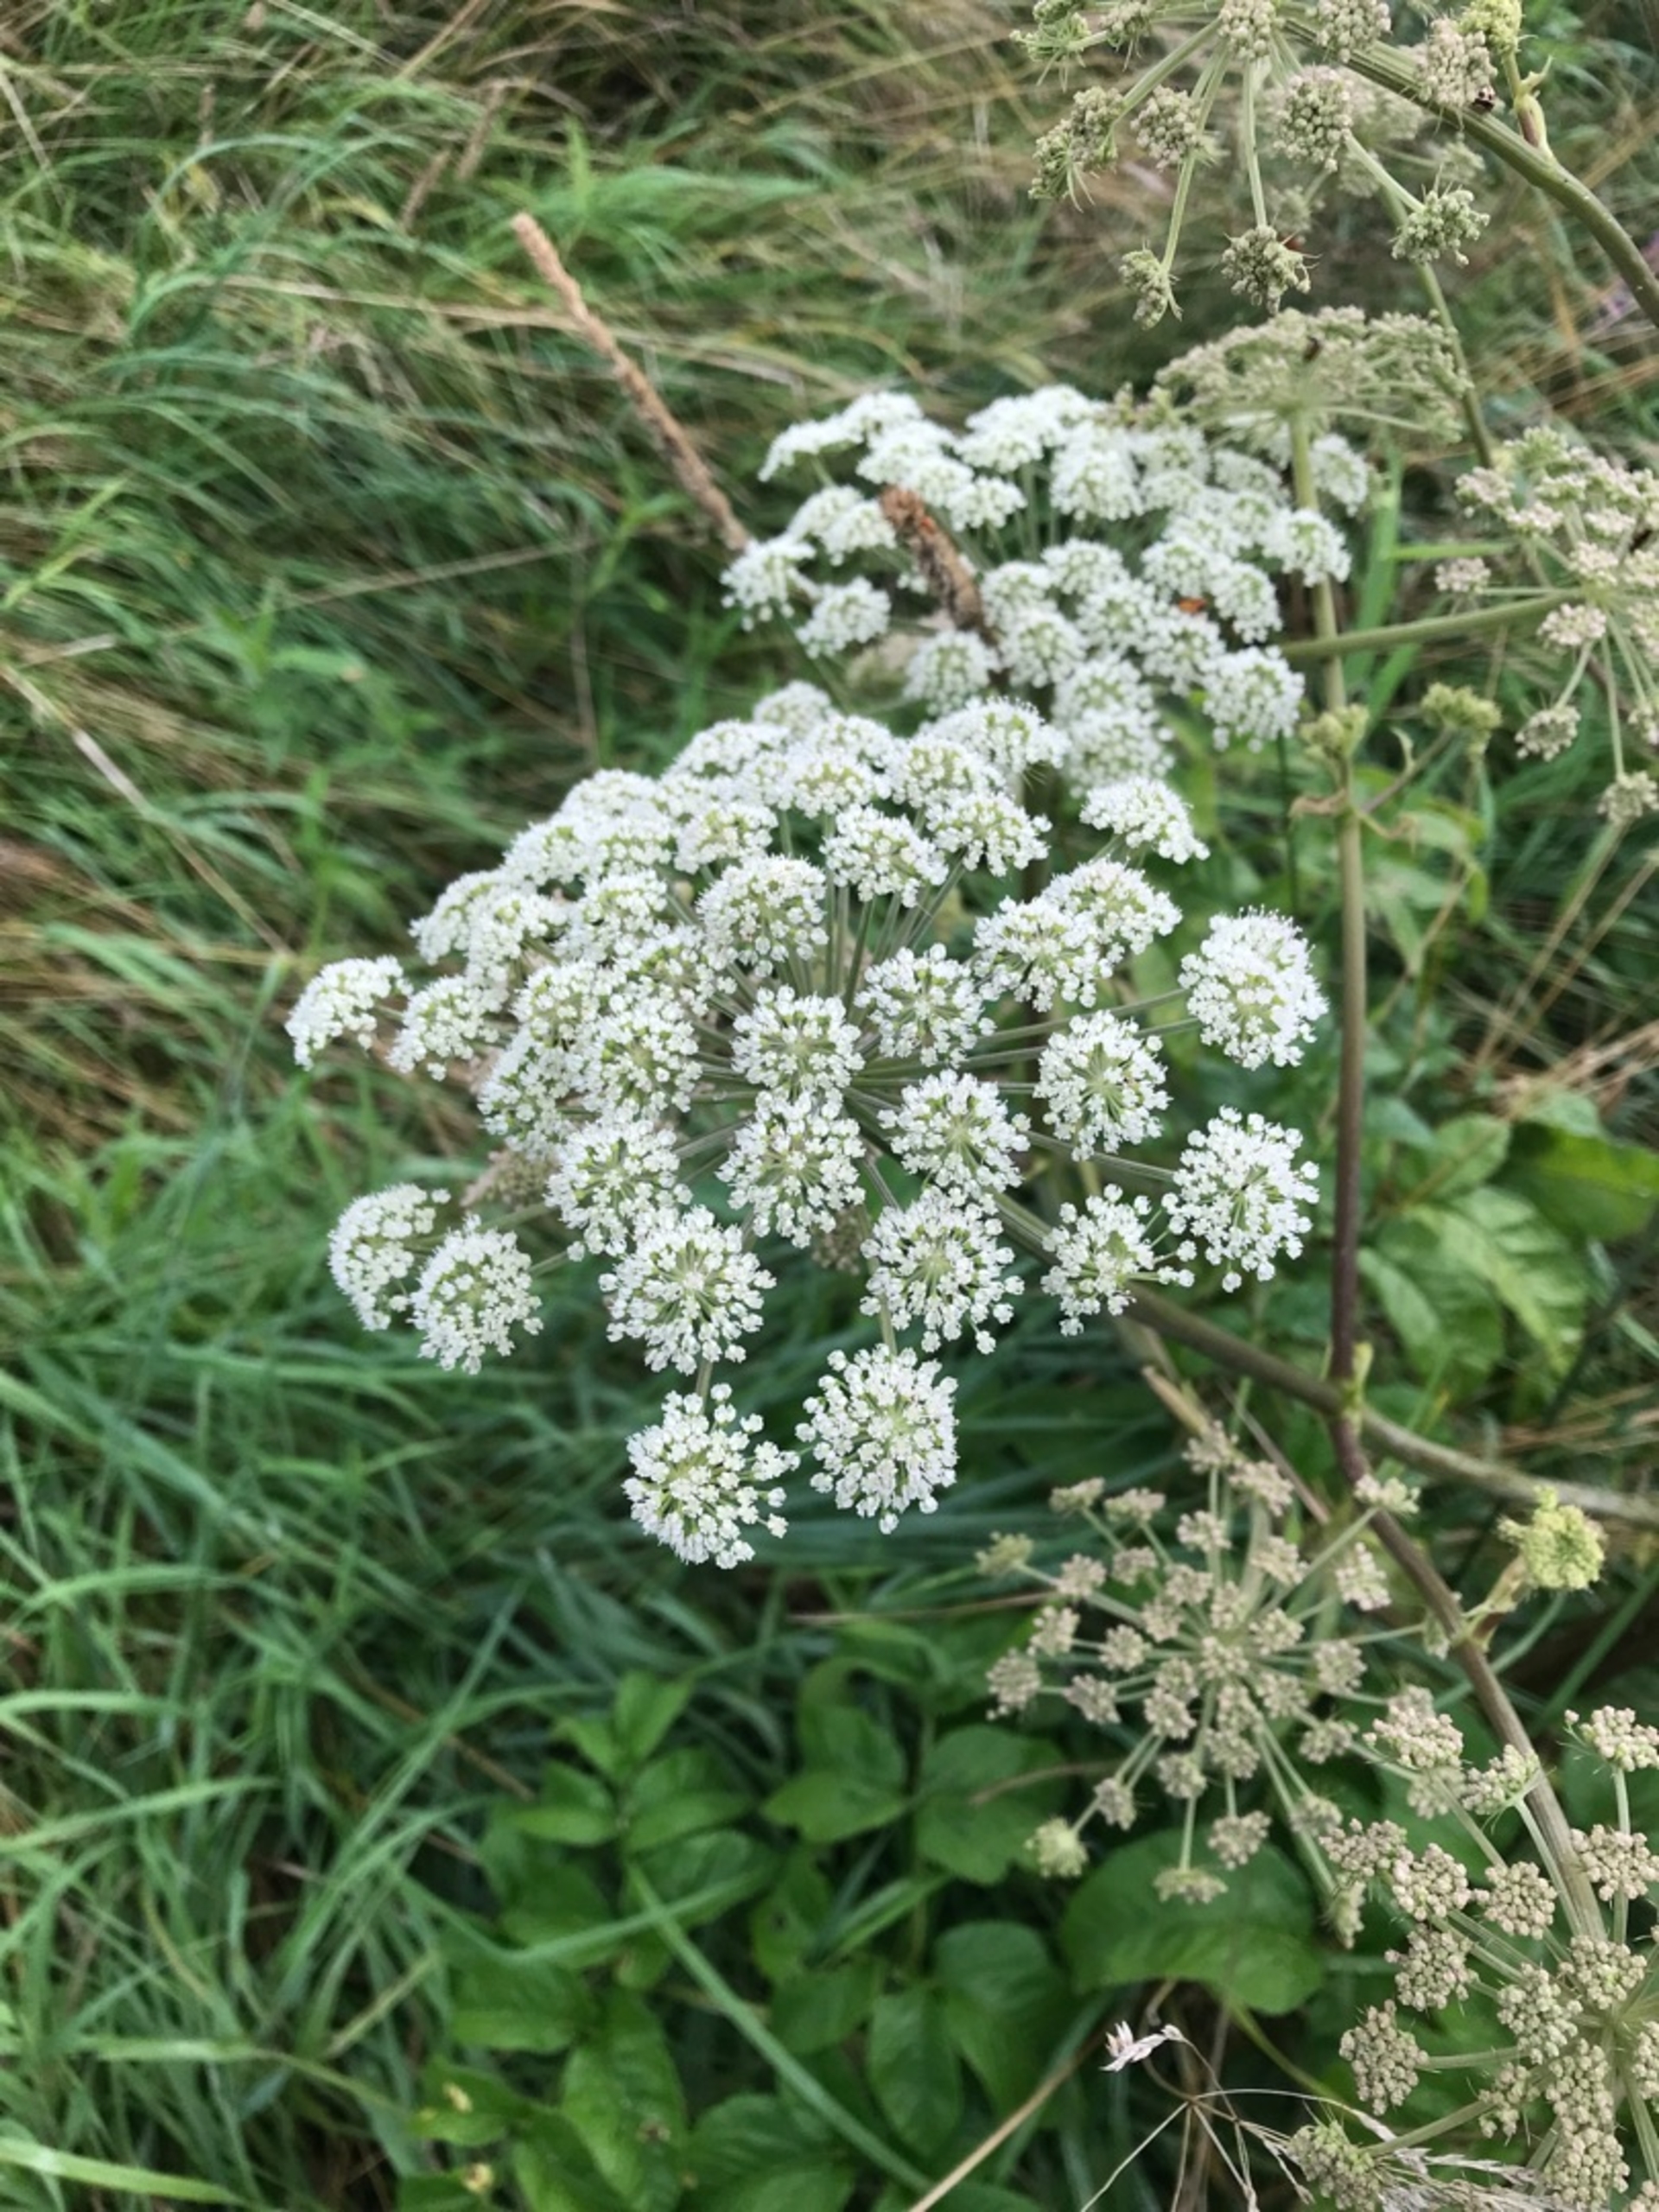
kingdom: Plantae
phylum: Tracheophyta
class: Magnoliopsida
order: Apiales
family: Apiaceae
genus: Angelica
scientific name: Angelica sylvestris
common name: Angelik
